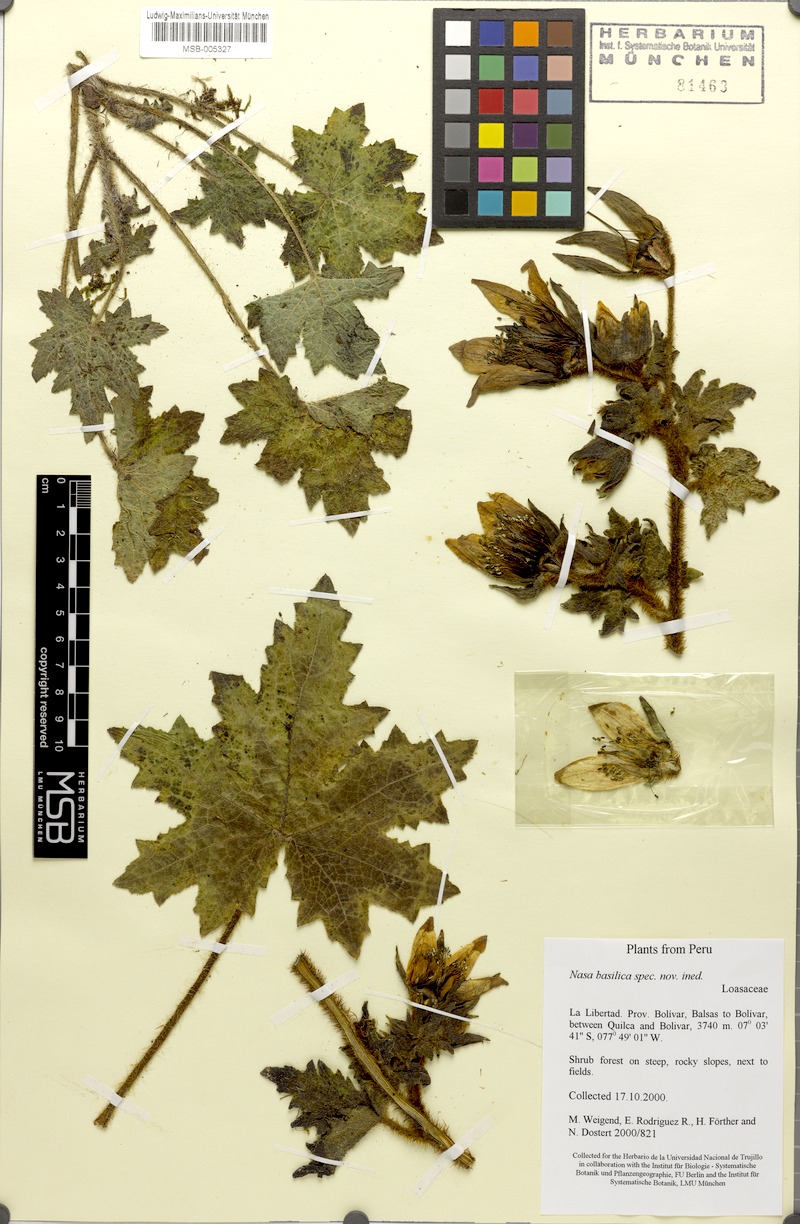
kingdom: Plantae
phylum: Tracheophyta
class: Magnoliopsida
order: Cornales
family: Loasaceae
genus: Nasa
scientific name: Nasa basilica
